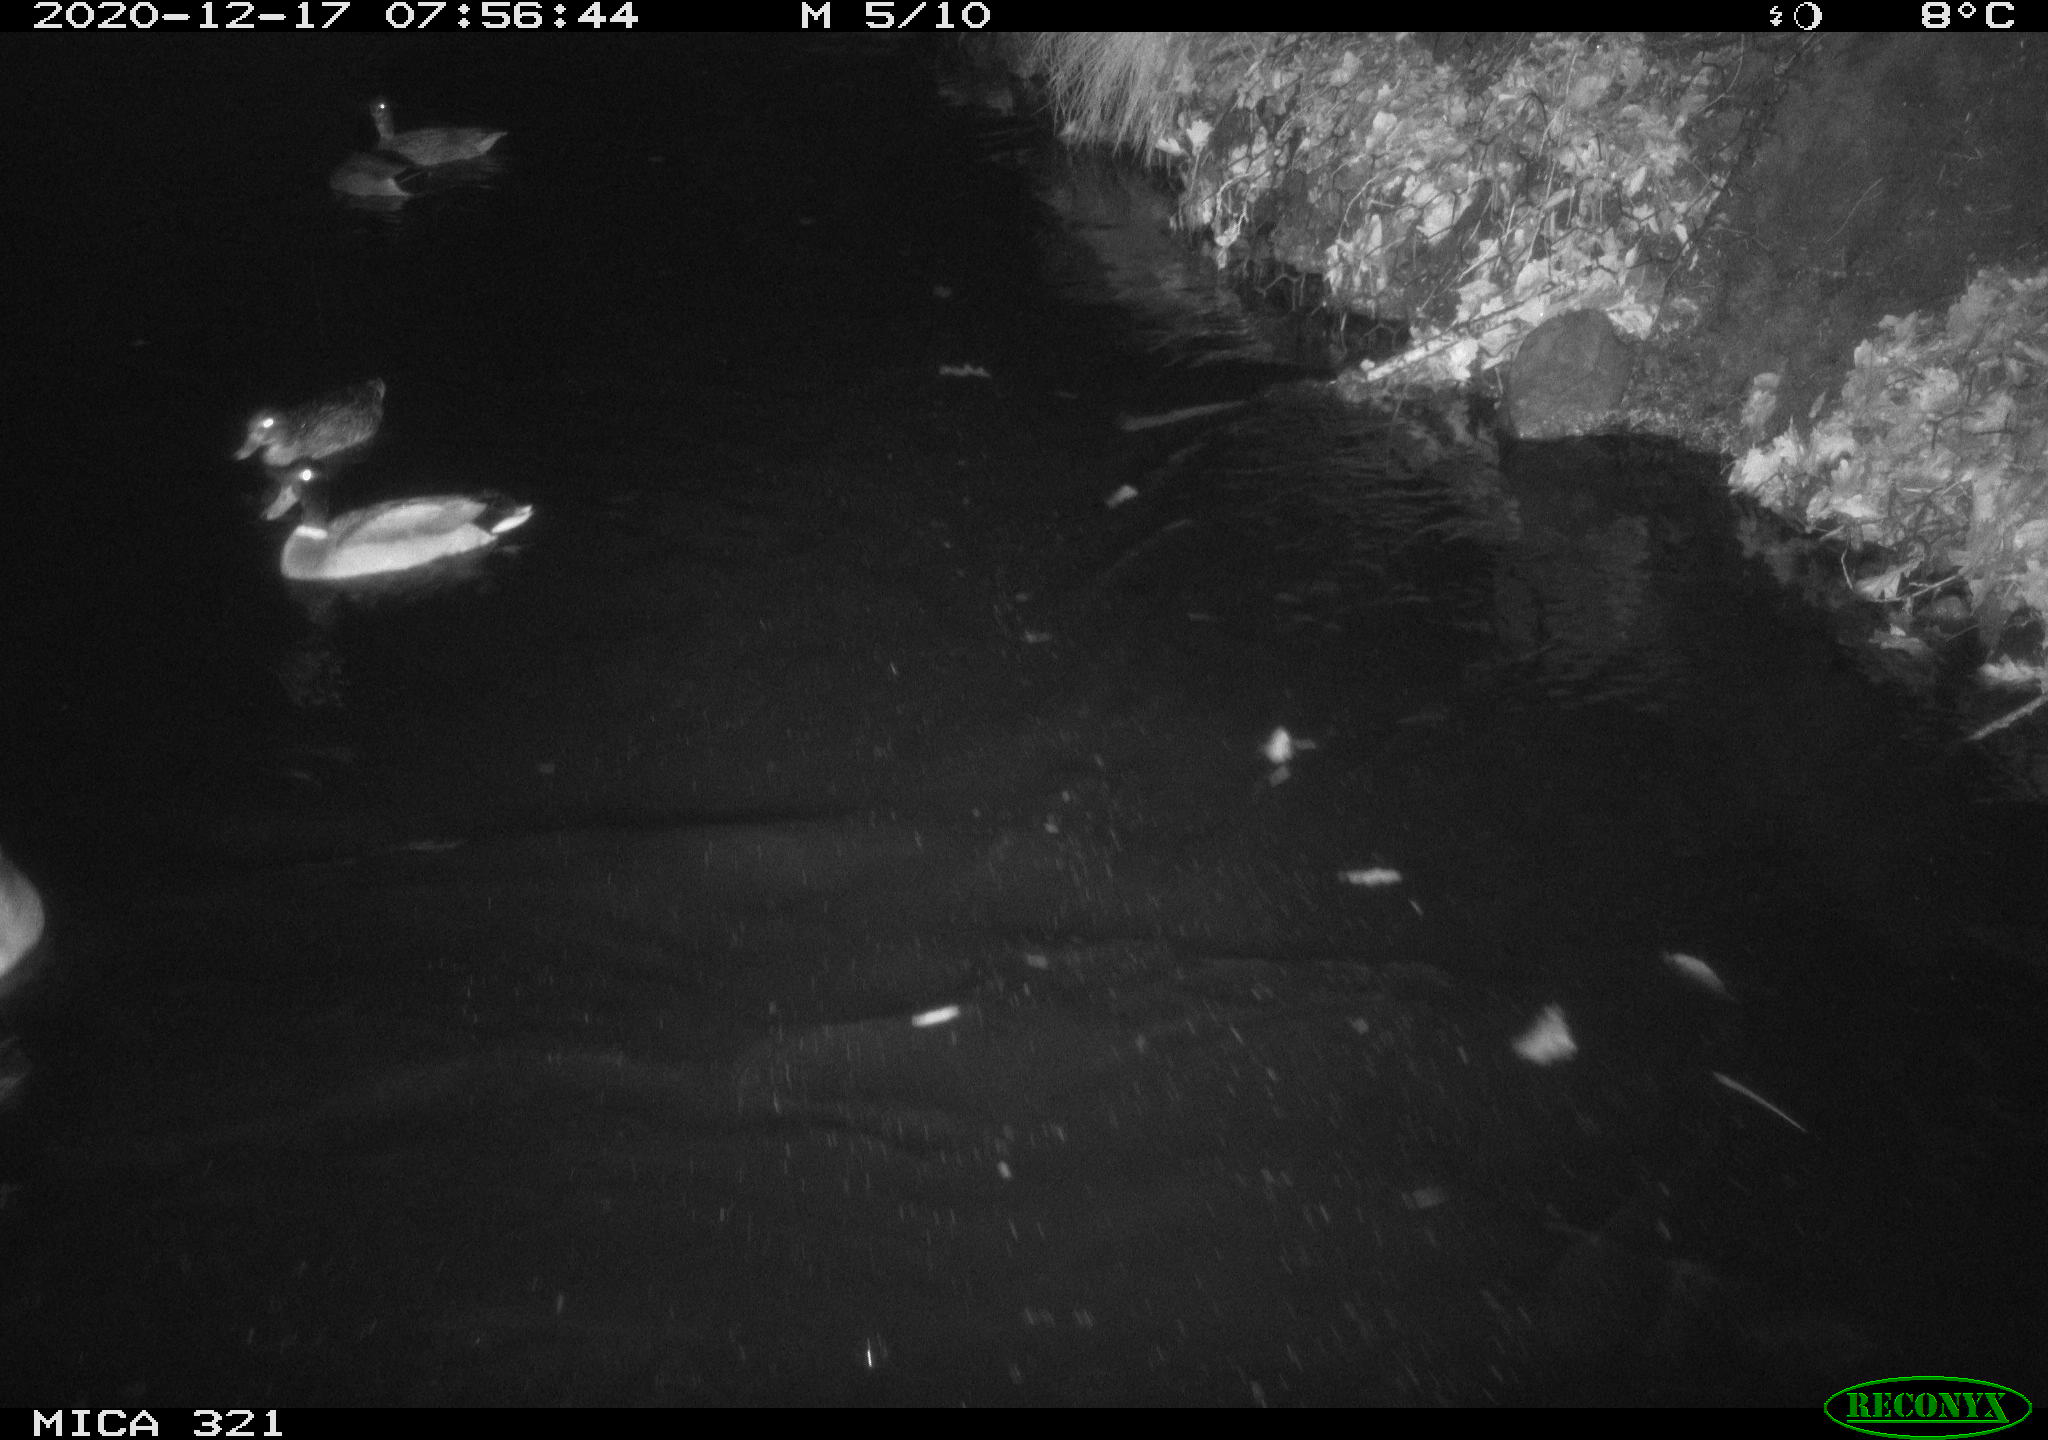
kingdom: Animalia
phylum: Chordata
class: Aves
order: Anseriformes
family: Anatidae
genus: Anas
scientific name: Anas platyrhynchos
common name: Mallard
